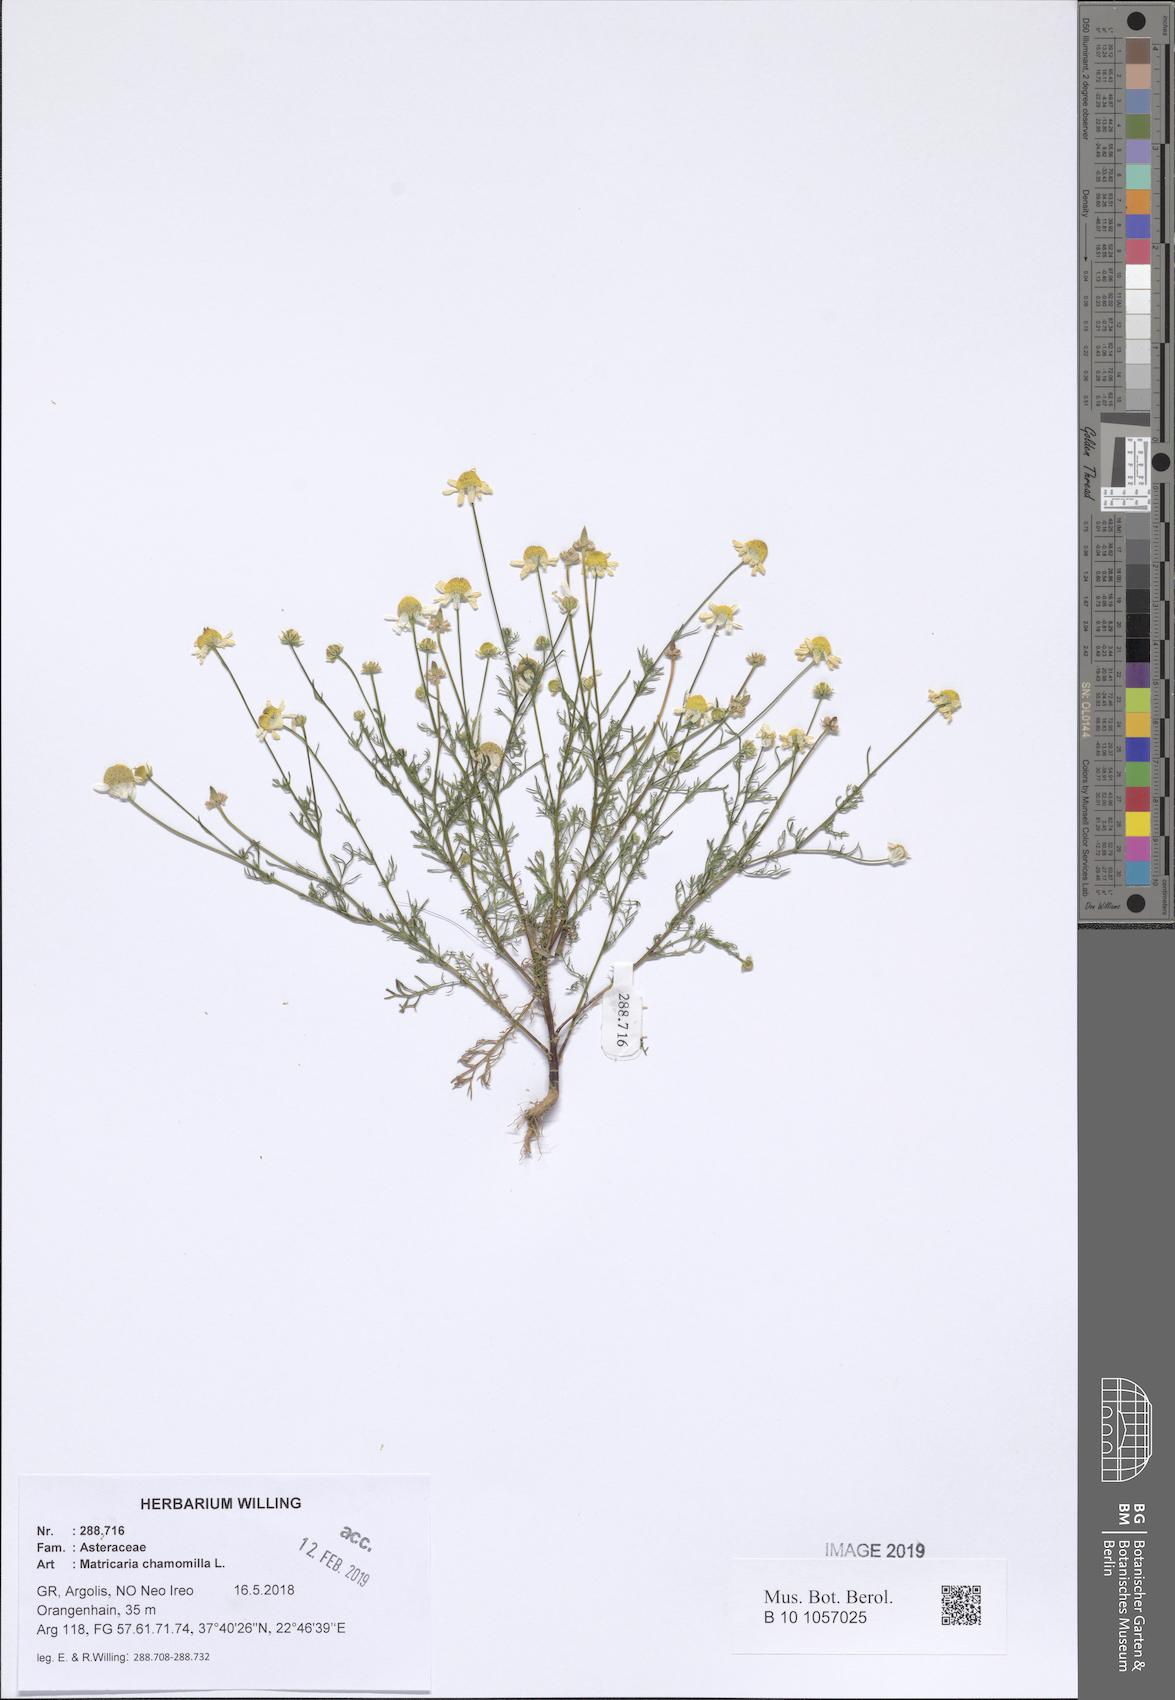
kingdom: Plantae
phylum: Tracheophyta
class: Magnoliopsida
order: Asterales
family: Asteraceae
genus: Matricaria
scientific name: Matricaria chamomilla
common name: Scented mayweed
